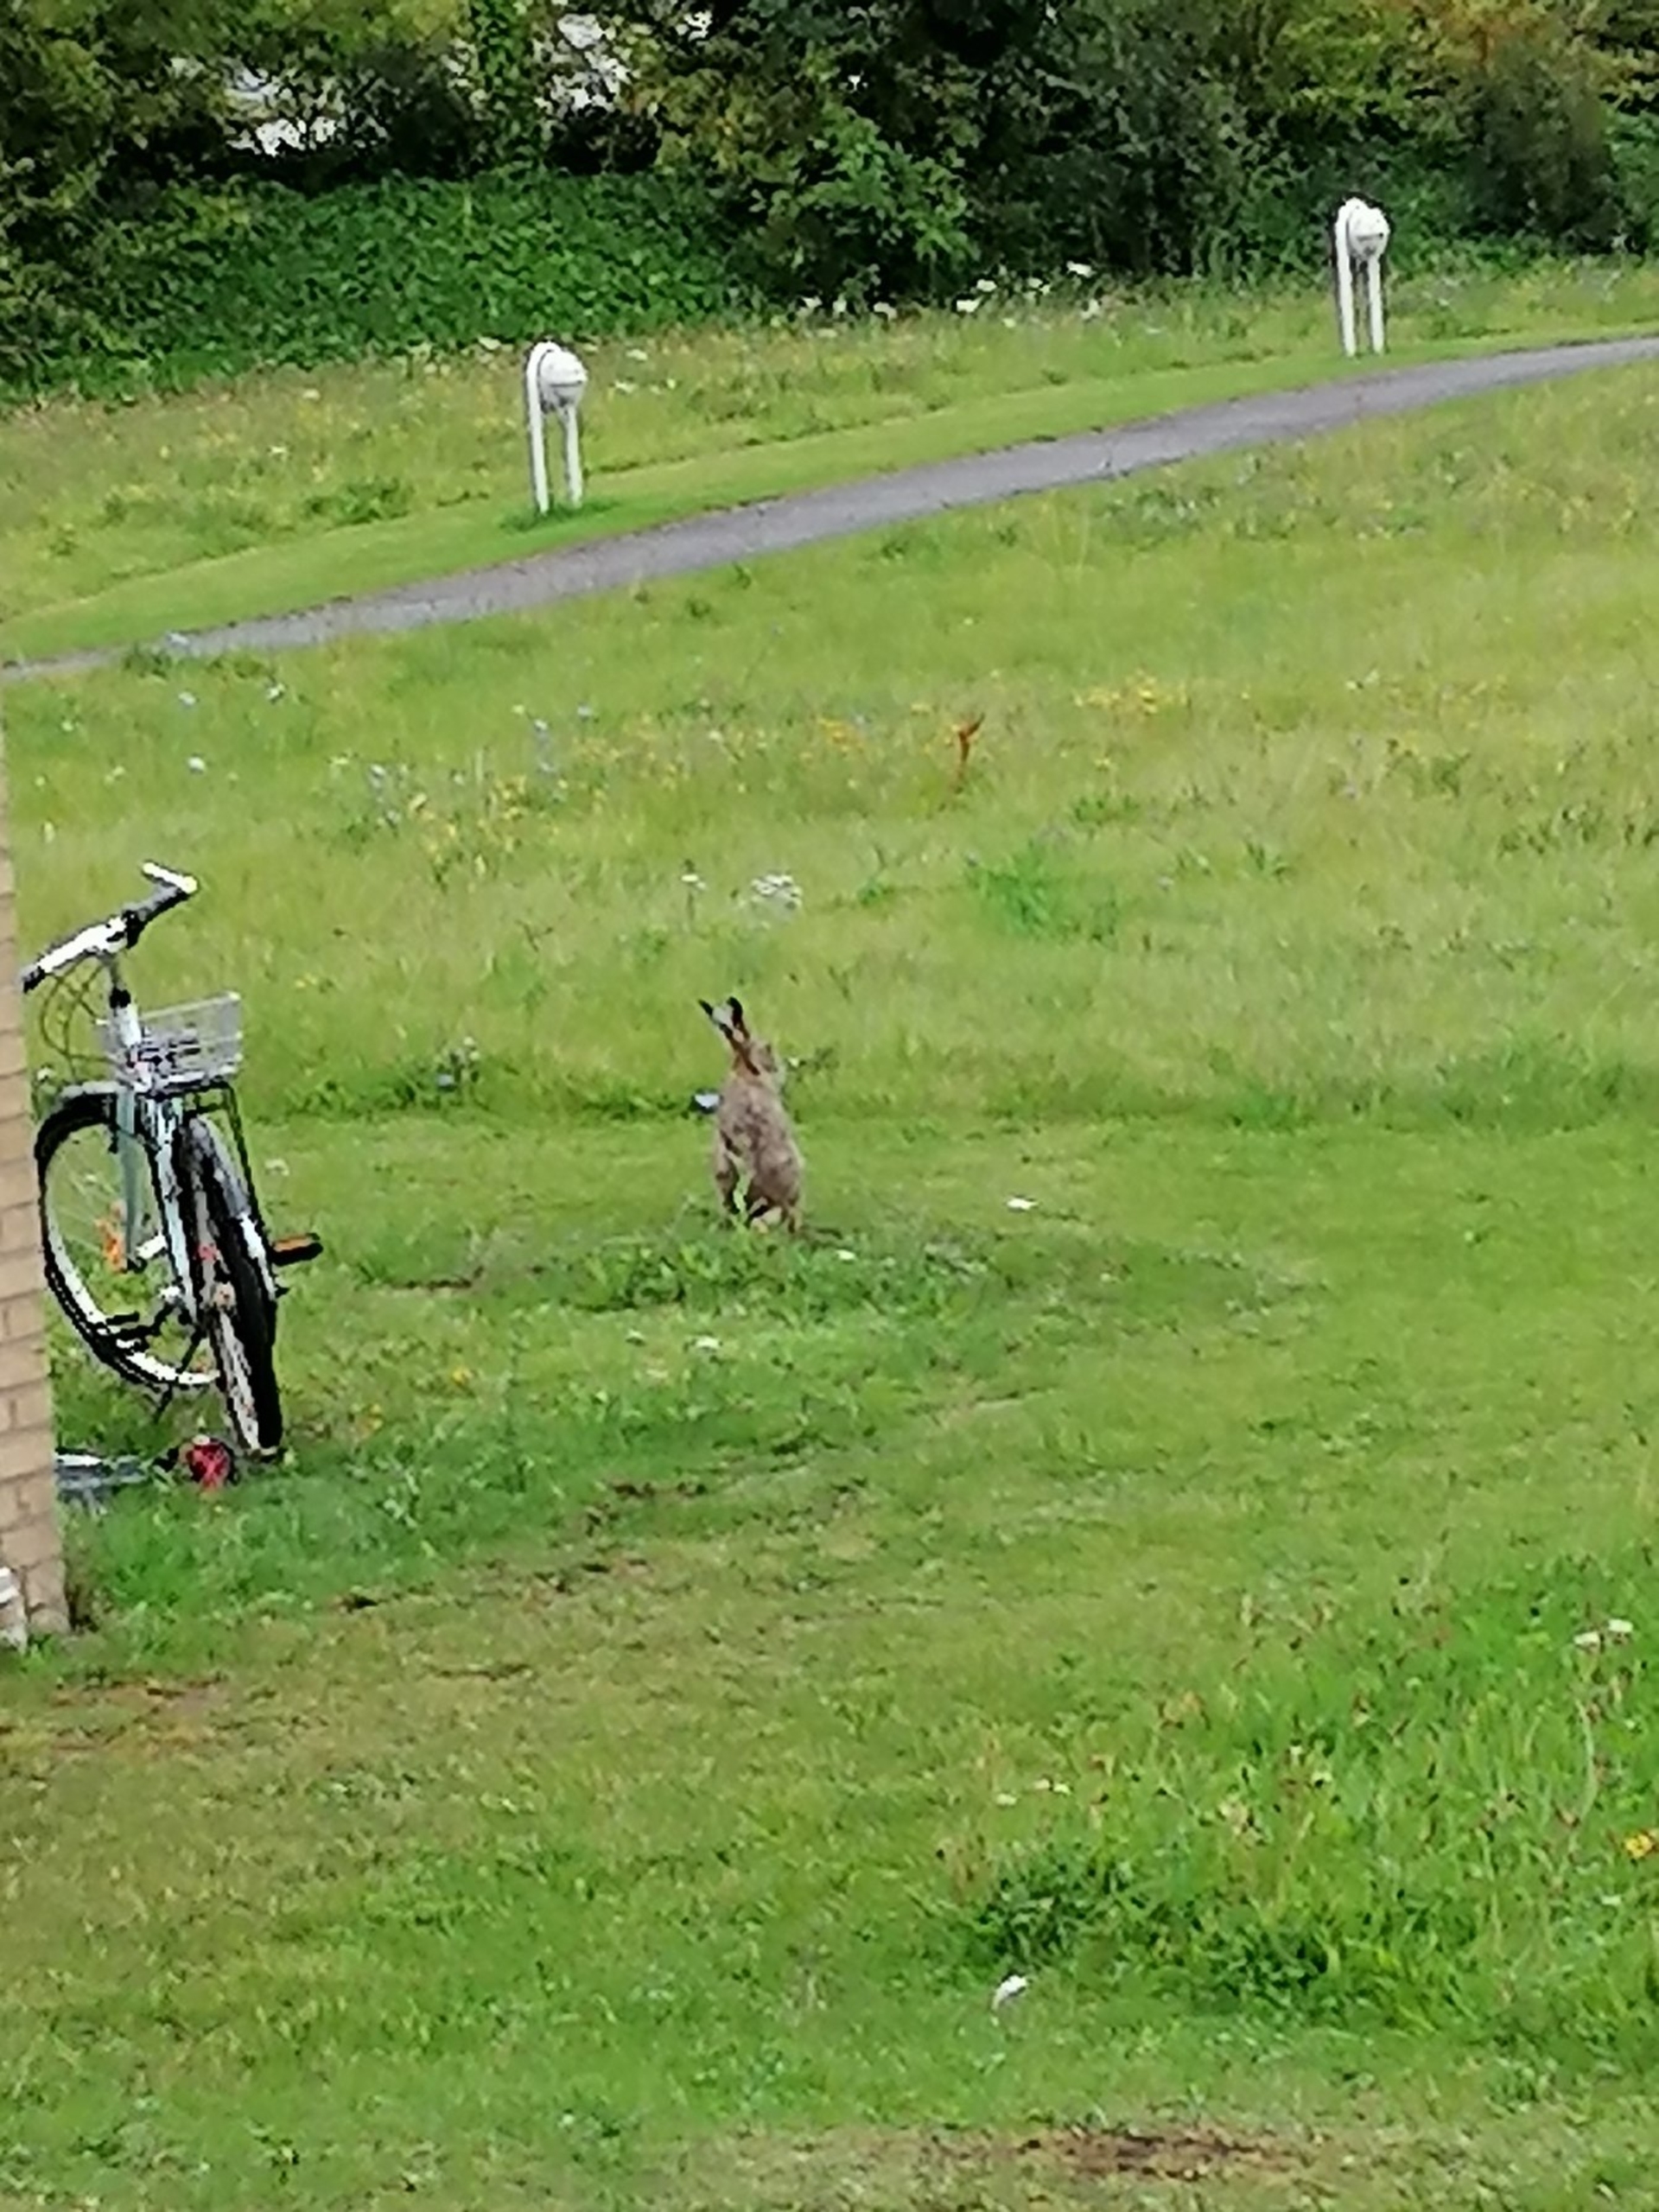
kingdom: Animalia
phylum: Chordata
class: Mammalia
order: Lagomorpha
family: Leporidae
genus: Lepus
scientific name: Lepus europaeus
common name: Hare
